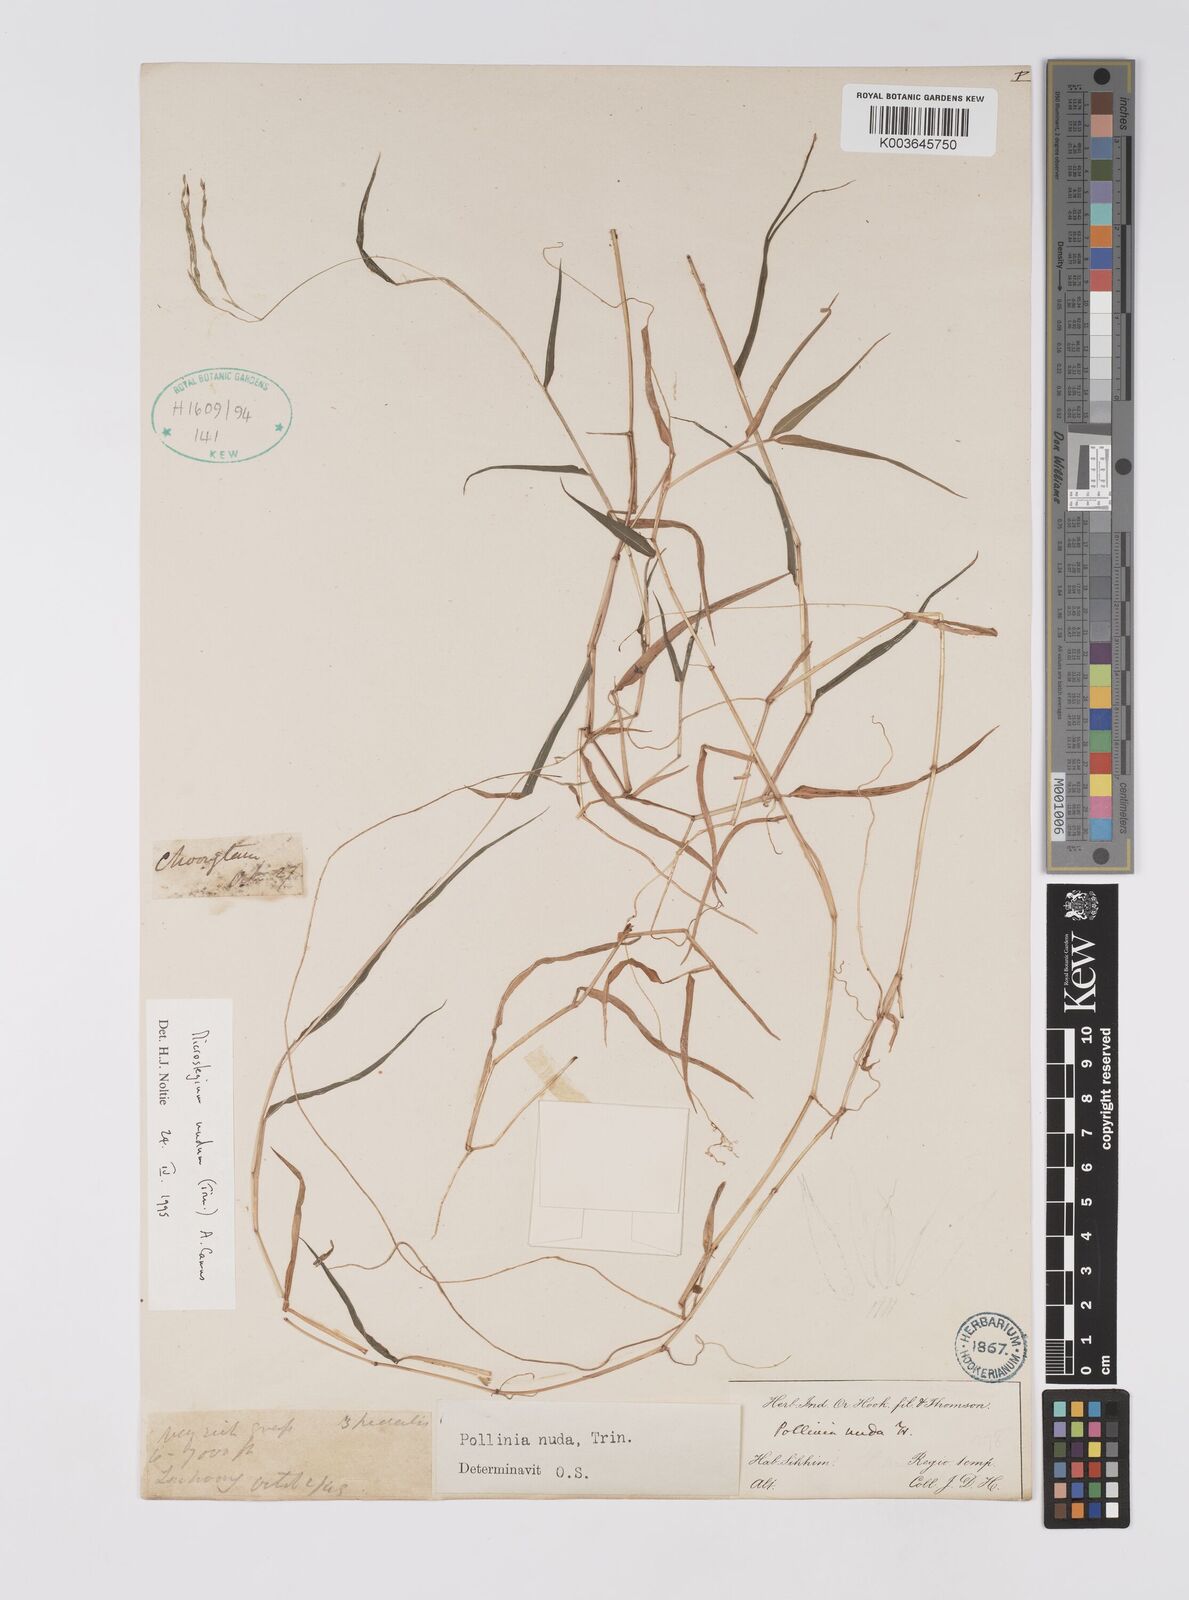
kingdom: Plantae
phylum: Tracheophyta
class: Liliopsida
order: Poales
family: Poaceae
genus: Microstegium
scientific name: Microstegium nudum
